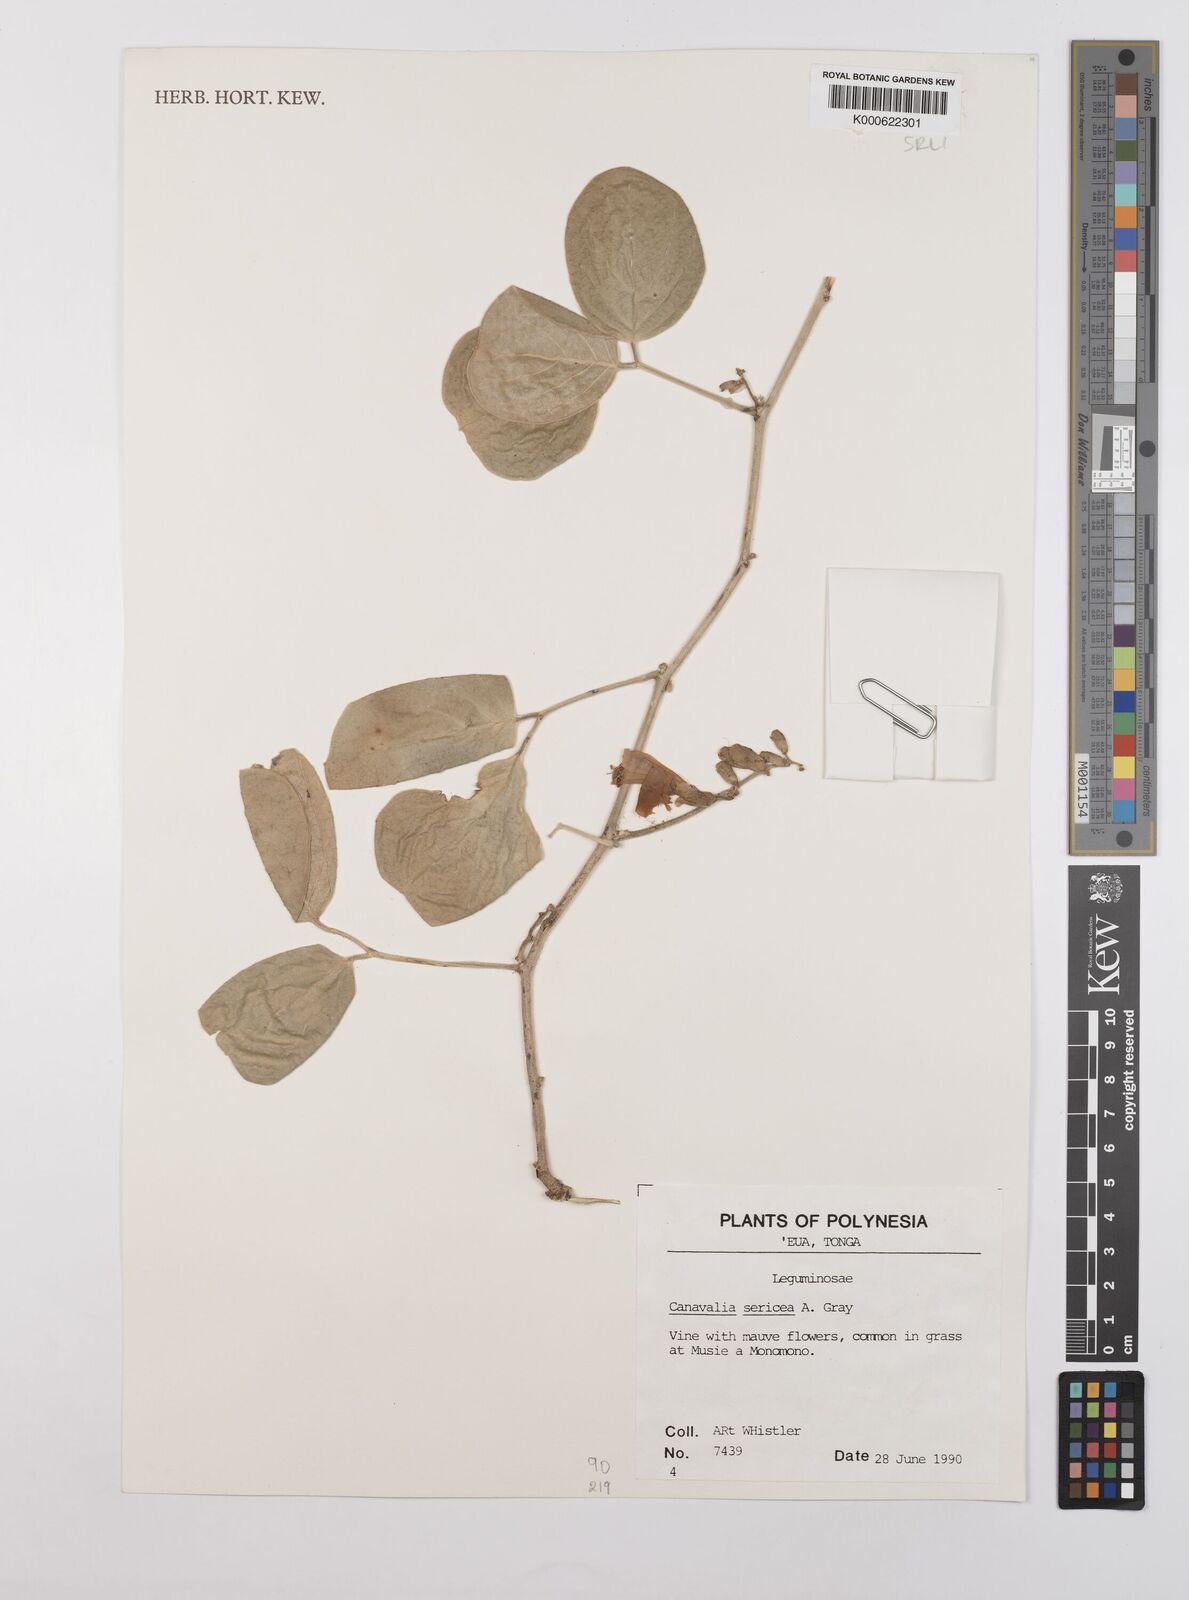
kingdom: Plantae
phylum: Tracheophyta
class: Magnoliopsida
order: Fabales
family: Fabaceae
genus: Canavalia
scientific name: Canavalia sericea
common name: Silky jackbean
